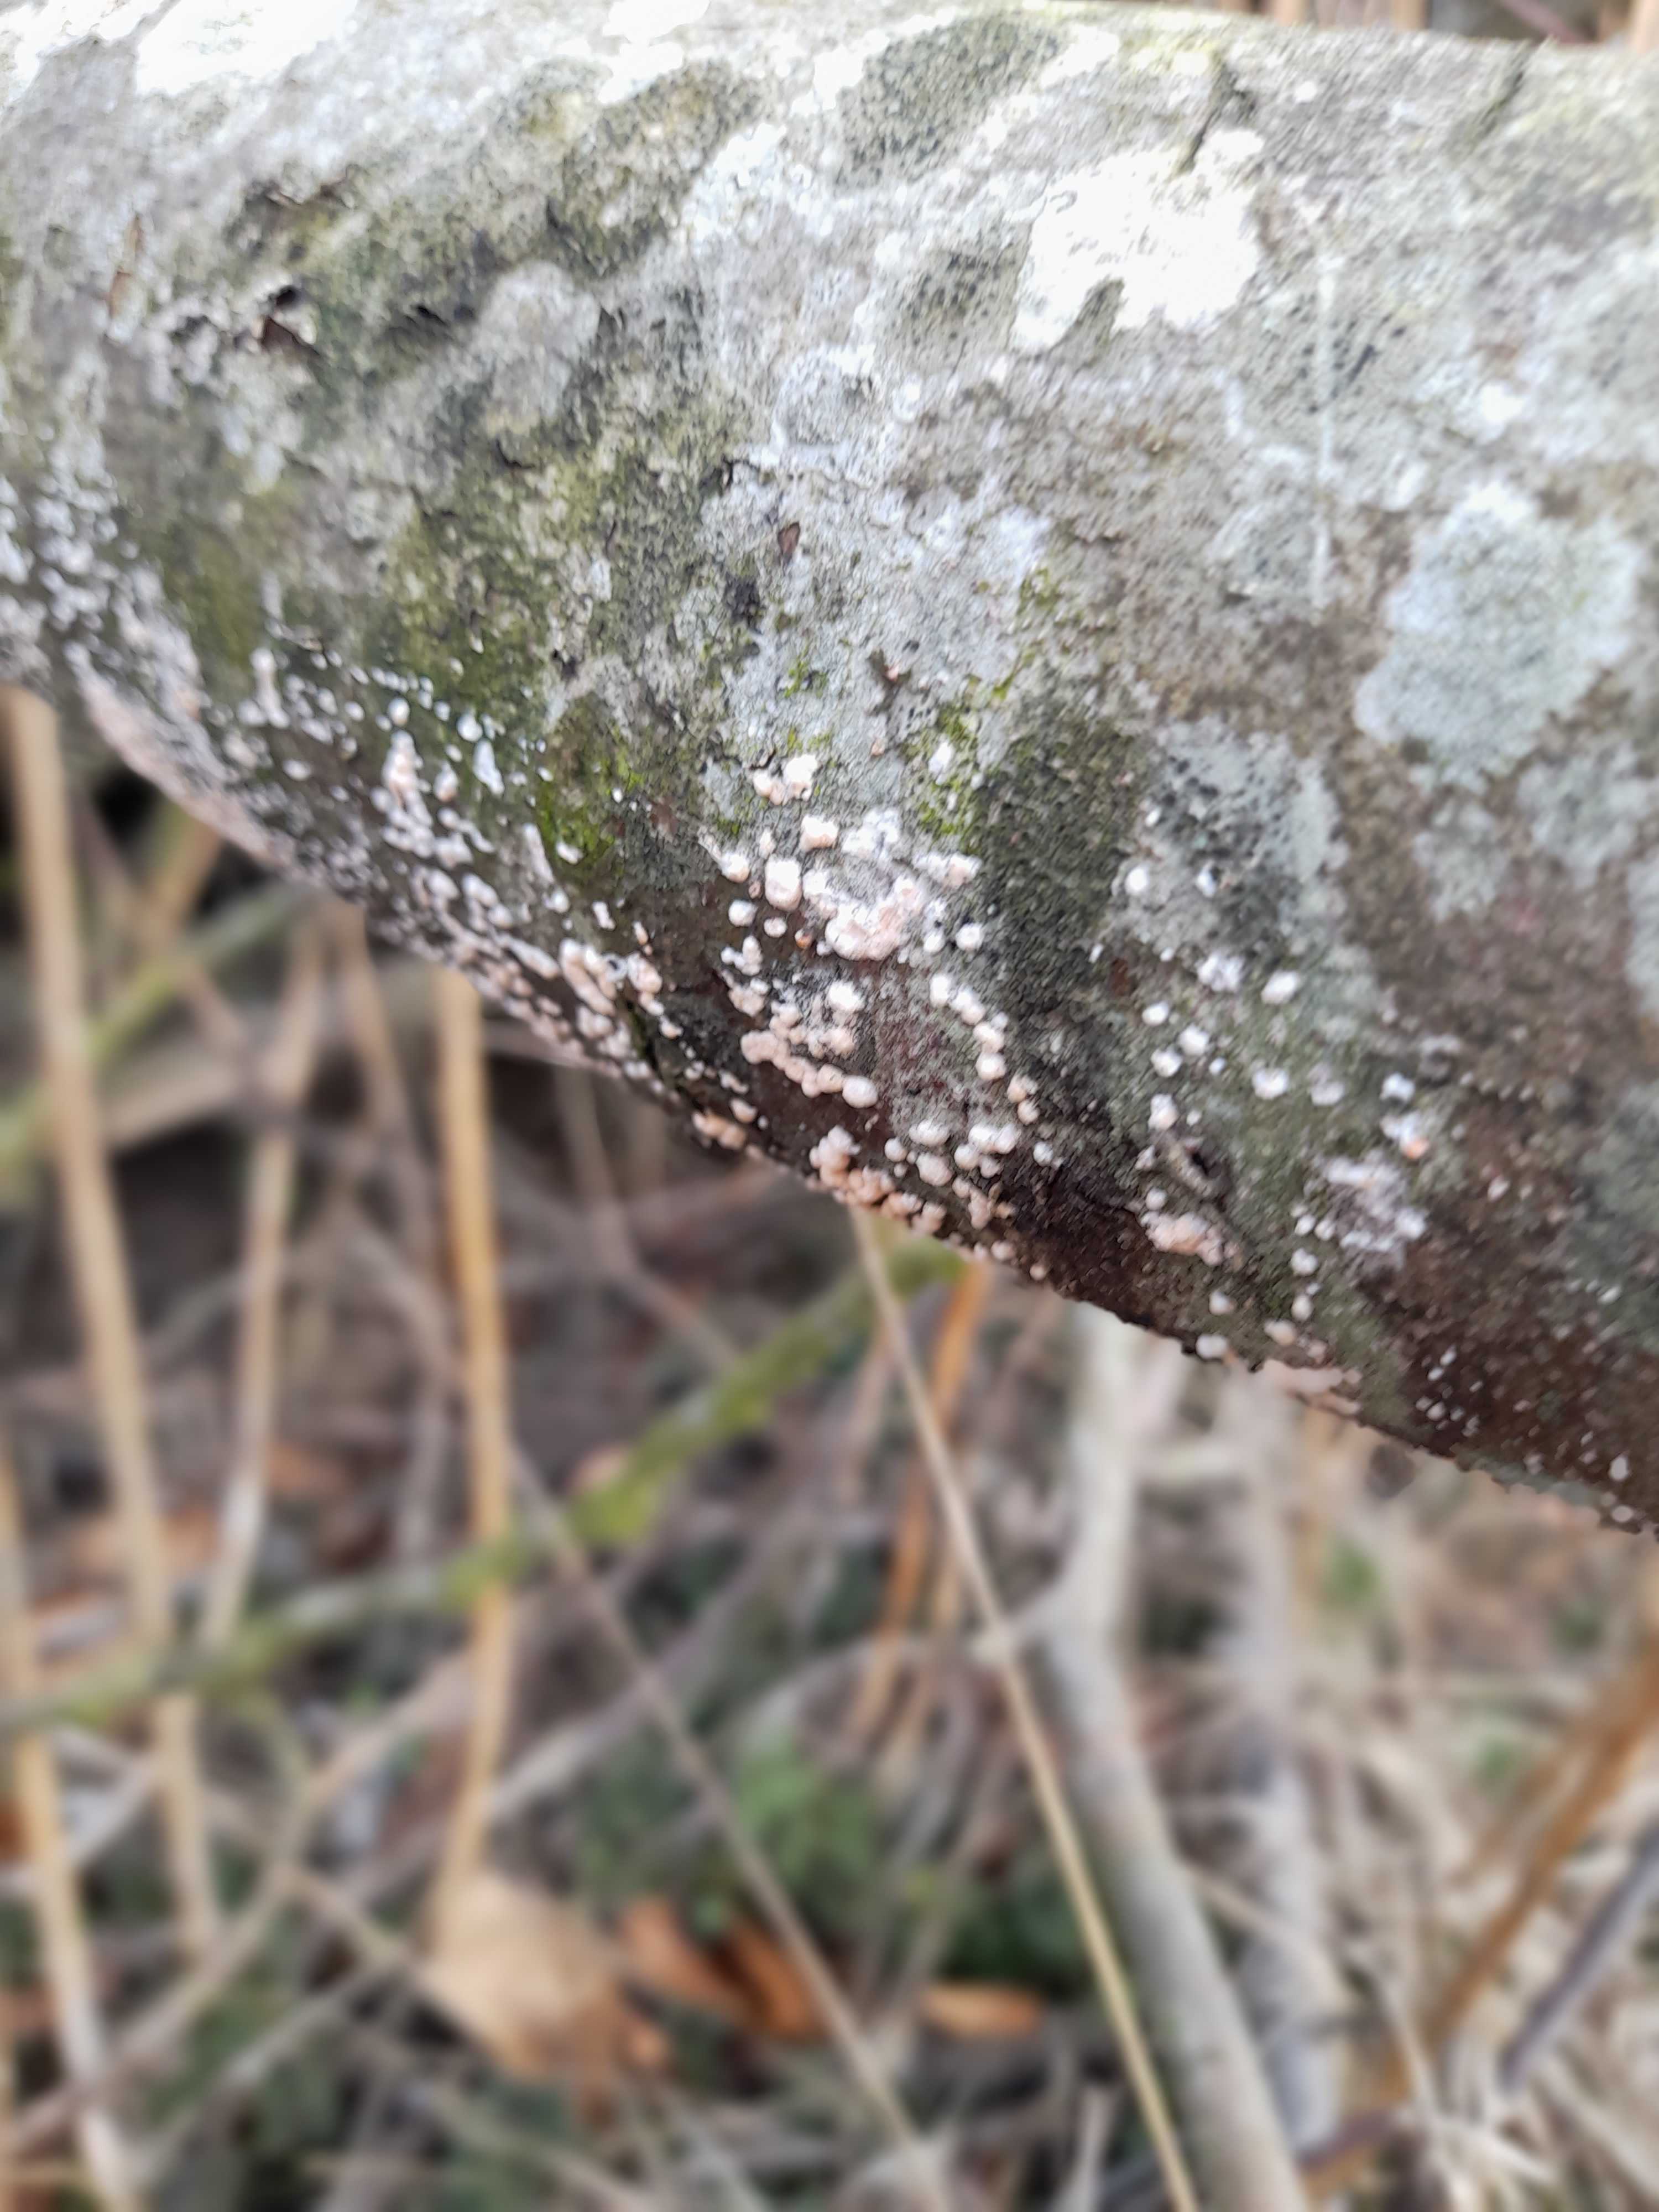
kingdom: Fungi
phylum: Basidiomycota
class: Agaricomycetes
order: Agaricales
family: Physalacriaceae
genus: Cylindrobasidium
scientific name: Cylindrobasidium evolvens
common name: sprækkehinde
